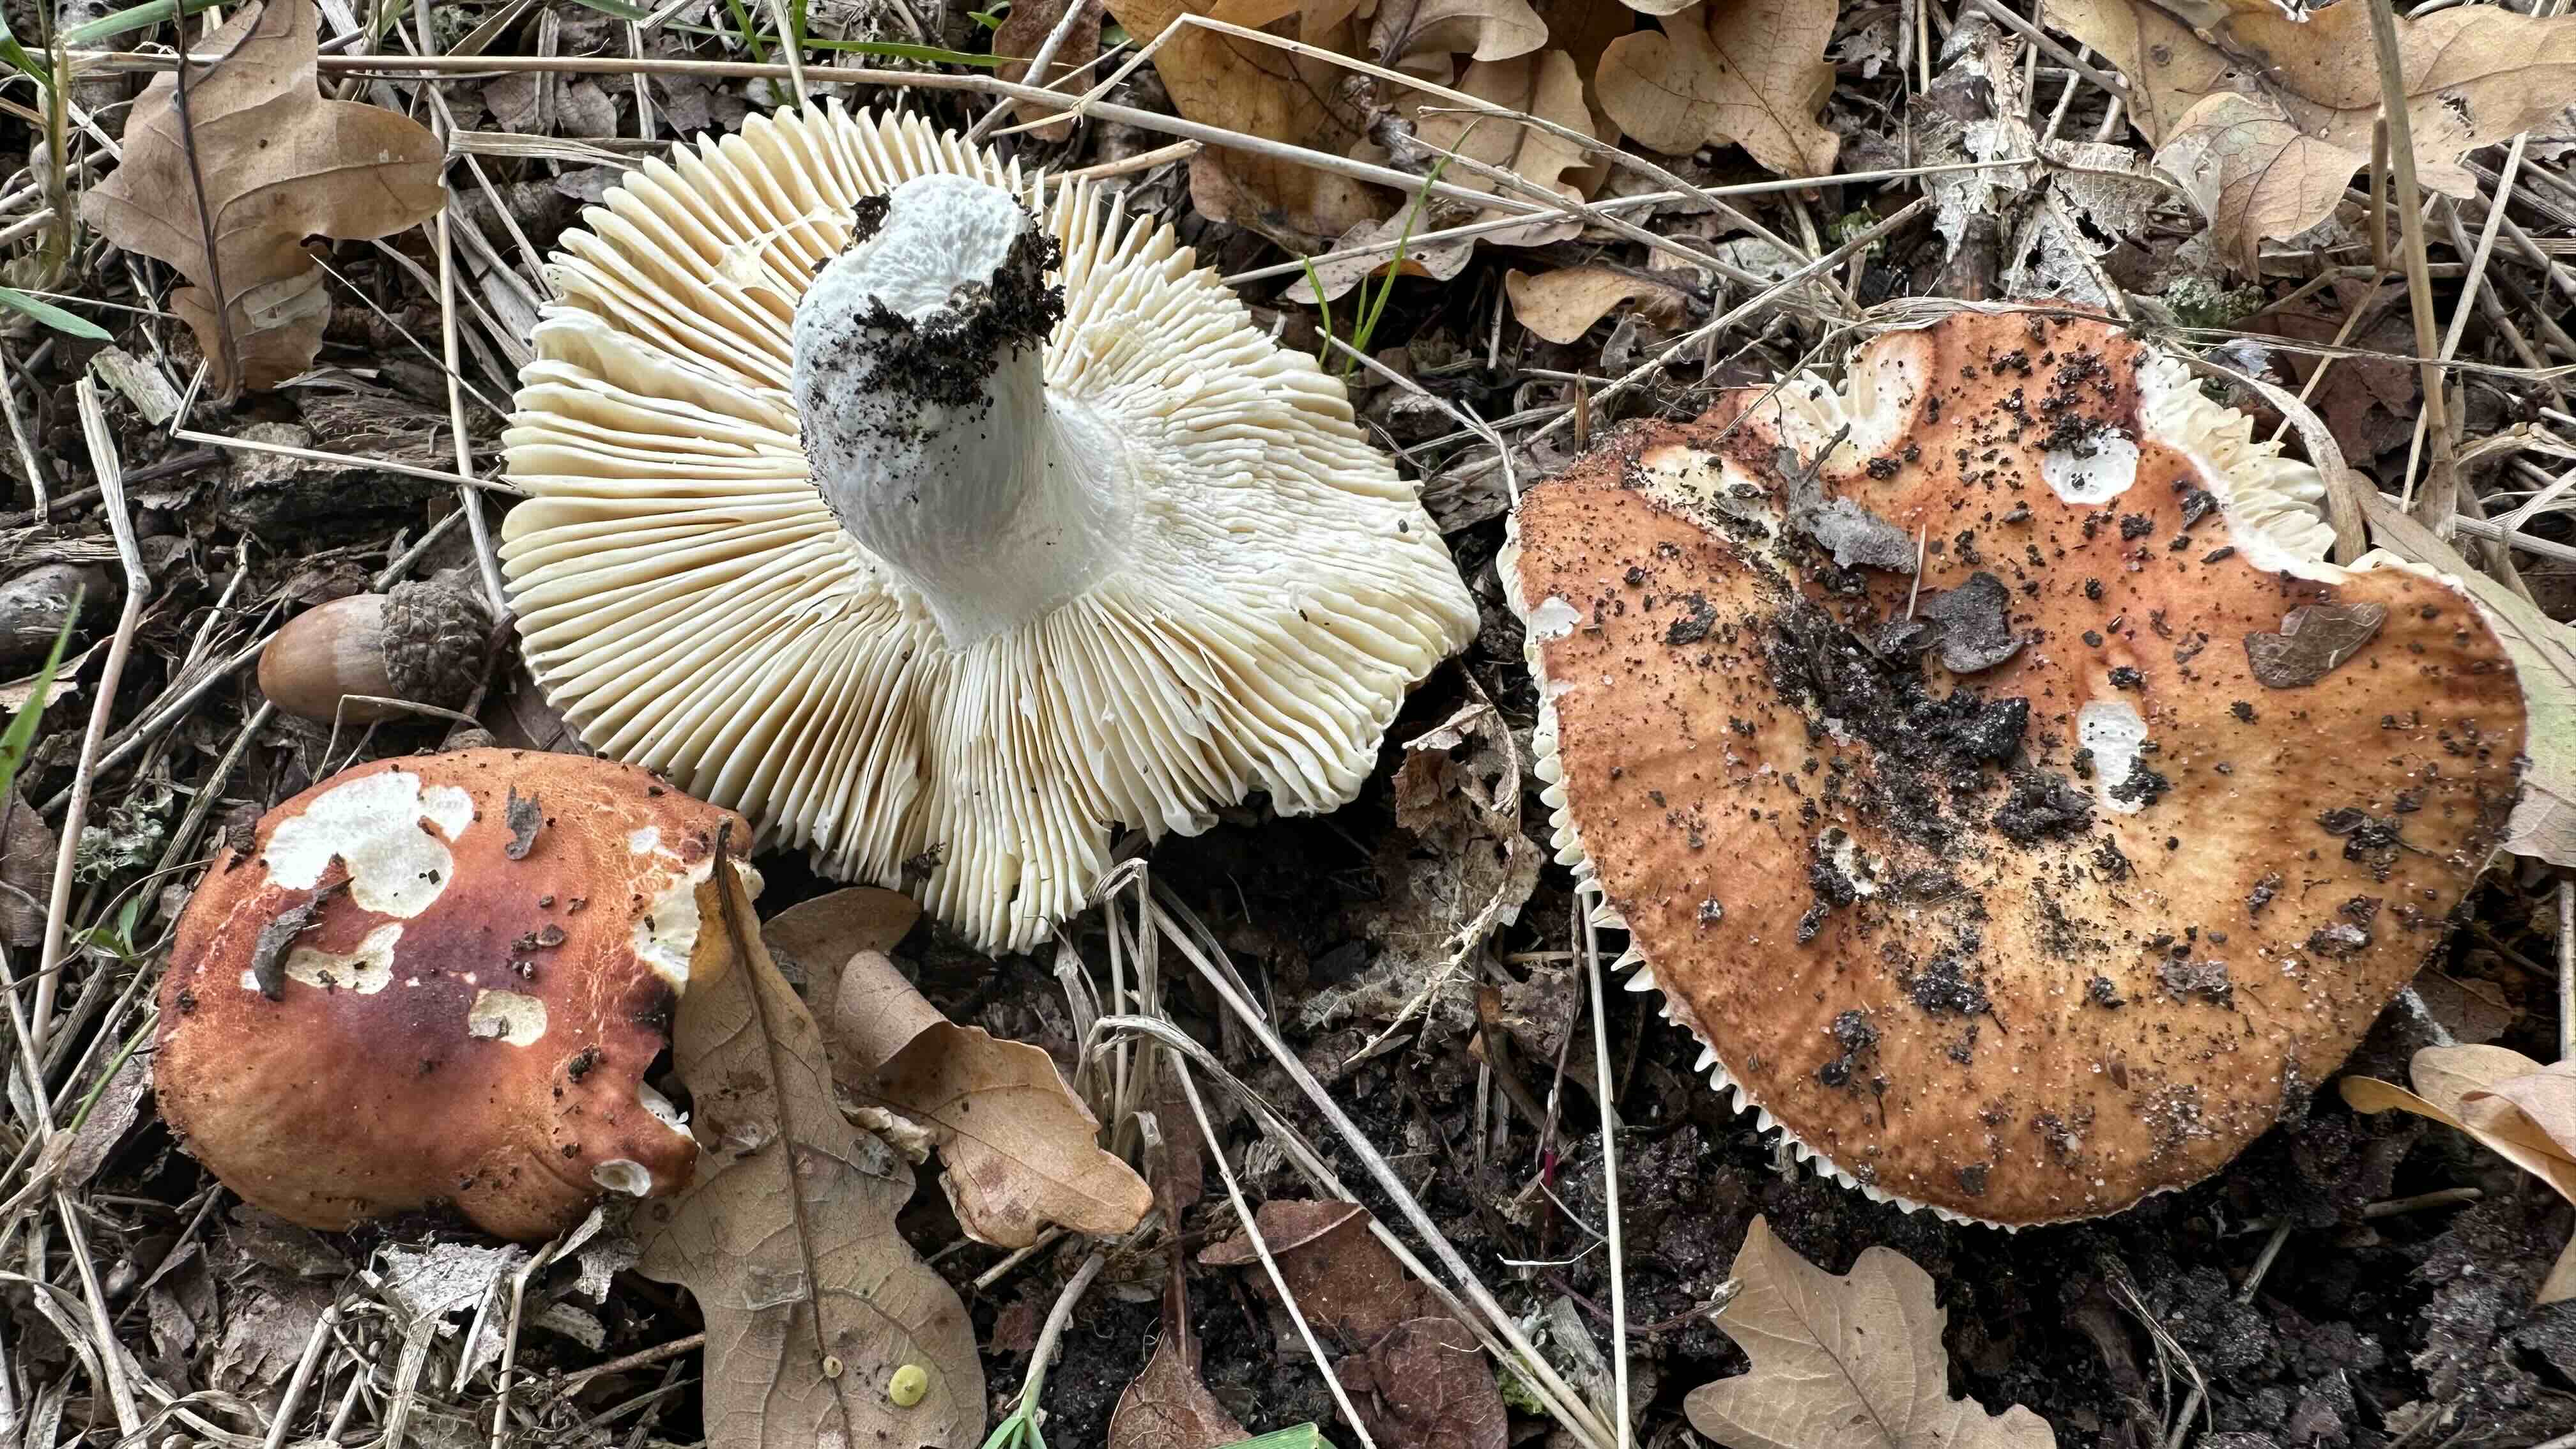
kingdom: Fungi
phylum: Basidiomycota
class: Agaricomycetes
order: Russulales
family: Russulaceae
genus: Russula
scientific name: Russula
